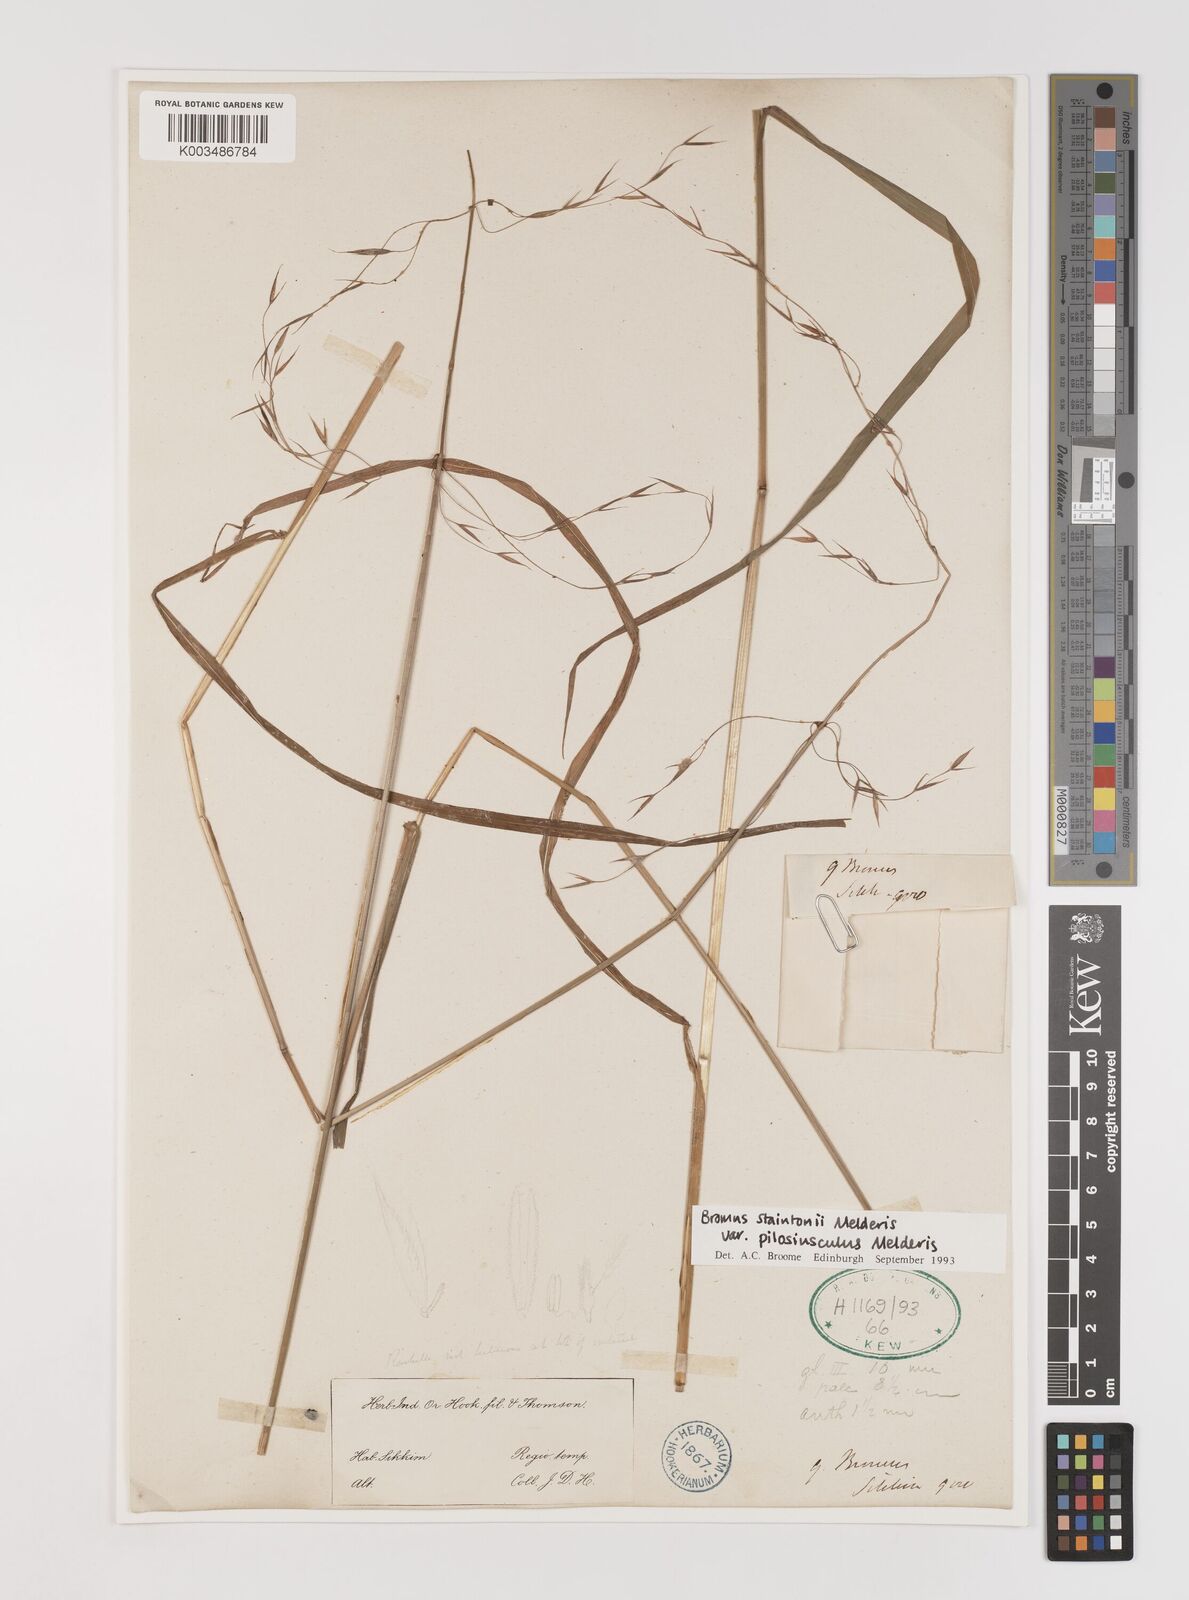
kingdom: Plantae
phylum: Tracheophyta
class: Liliopsida
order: Poales
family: Poaceae
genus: Bromus
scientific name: Bromus staintonii
